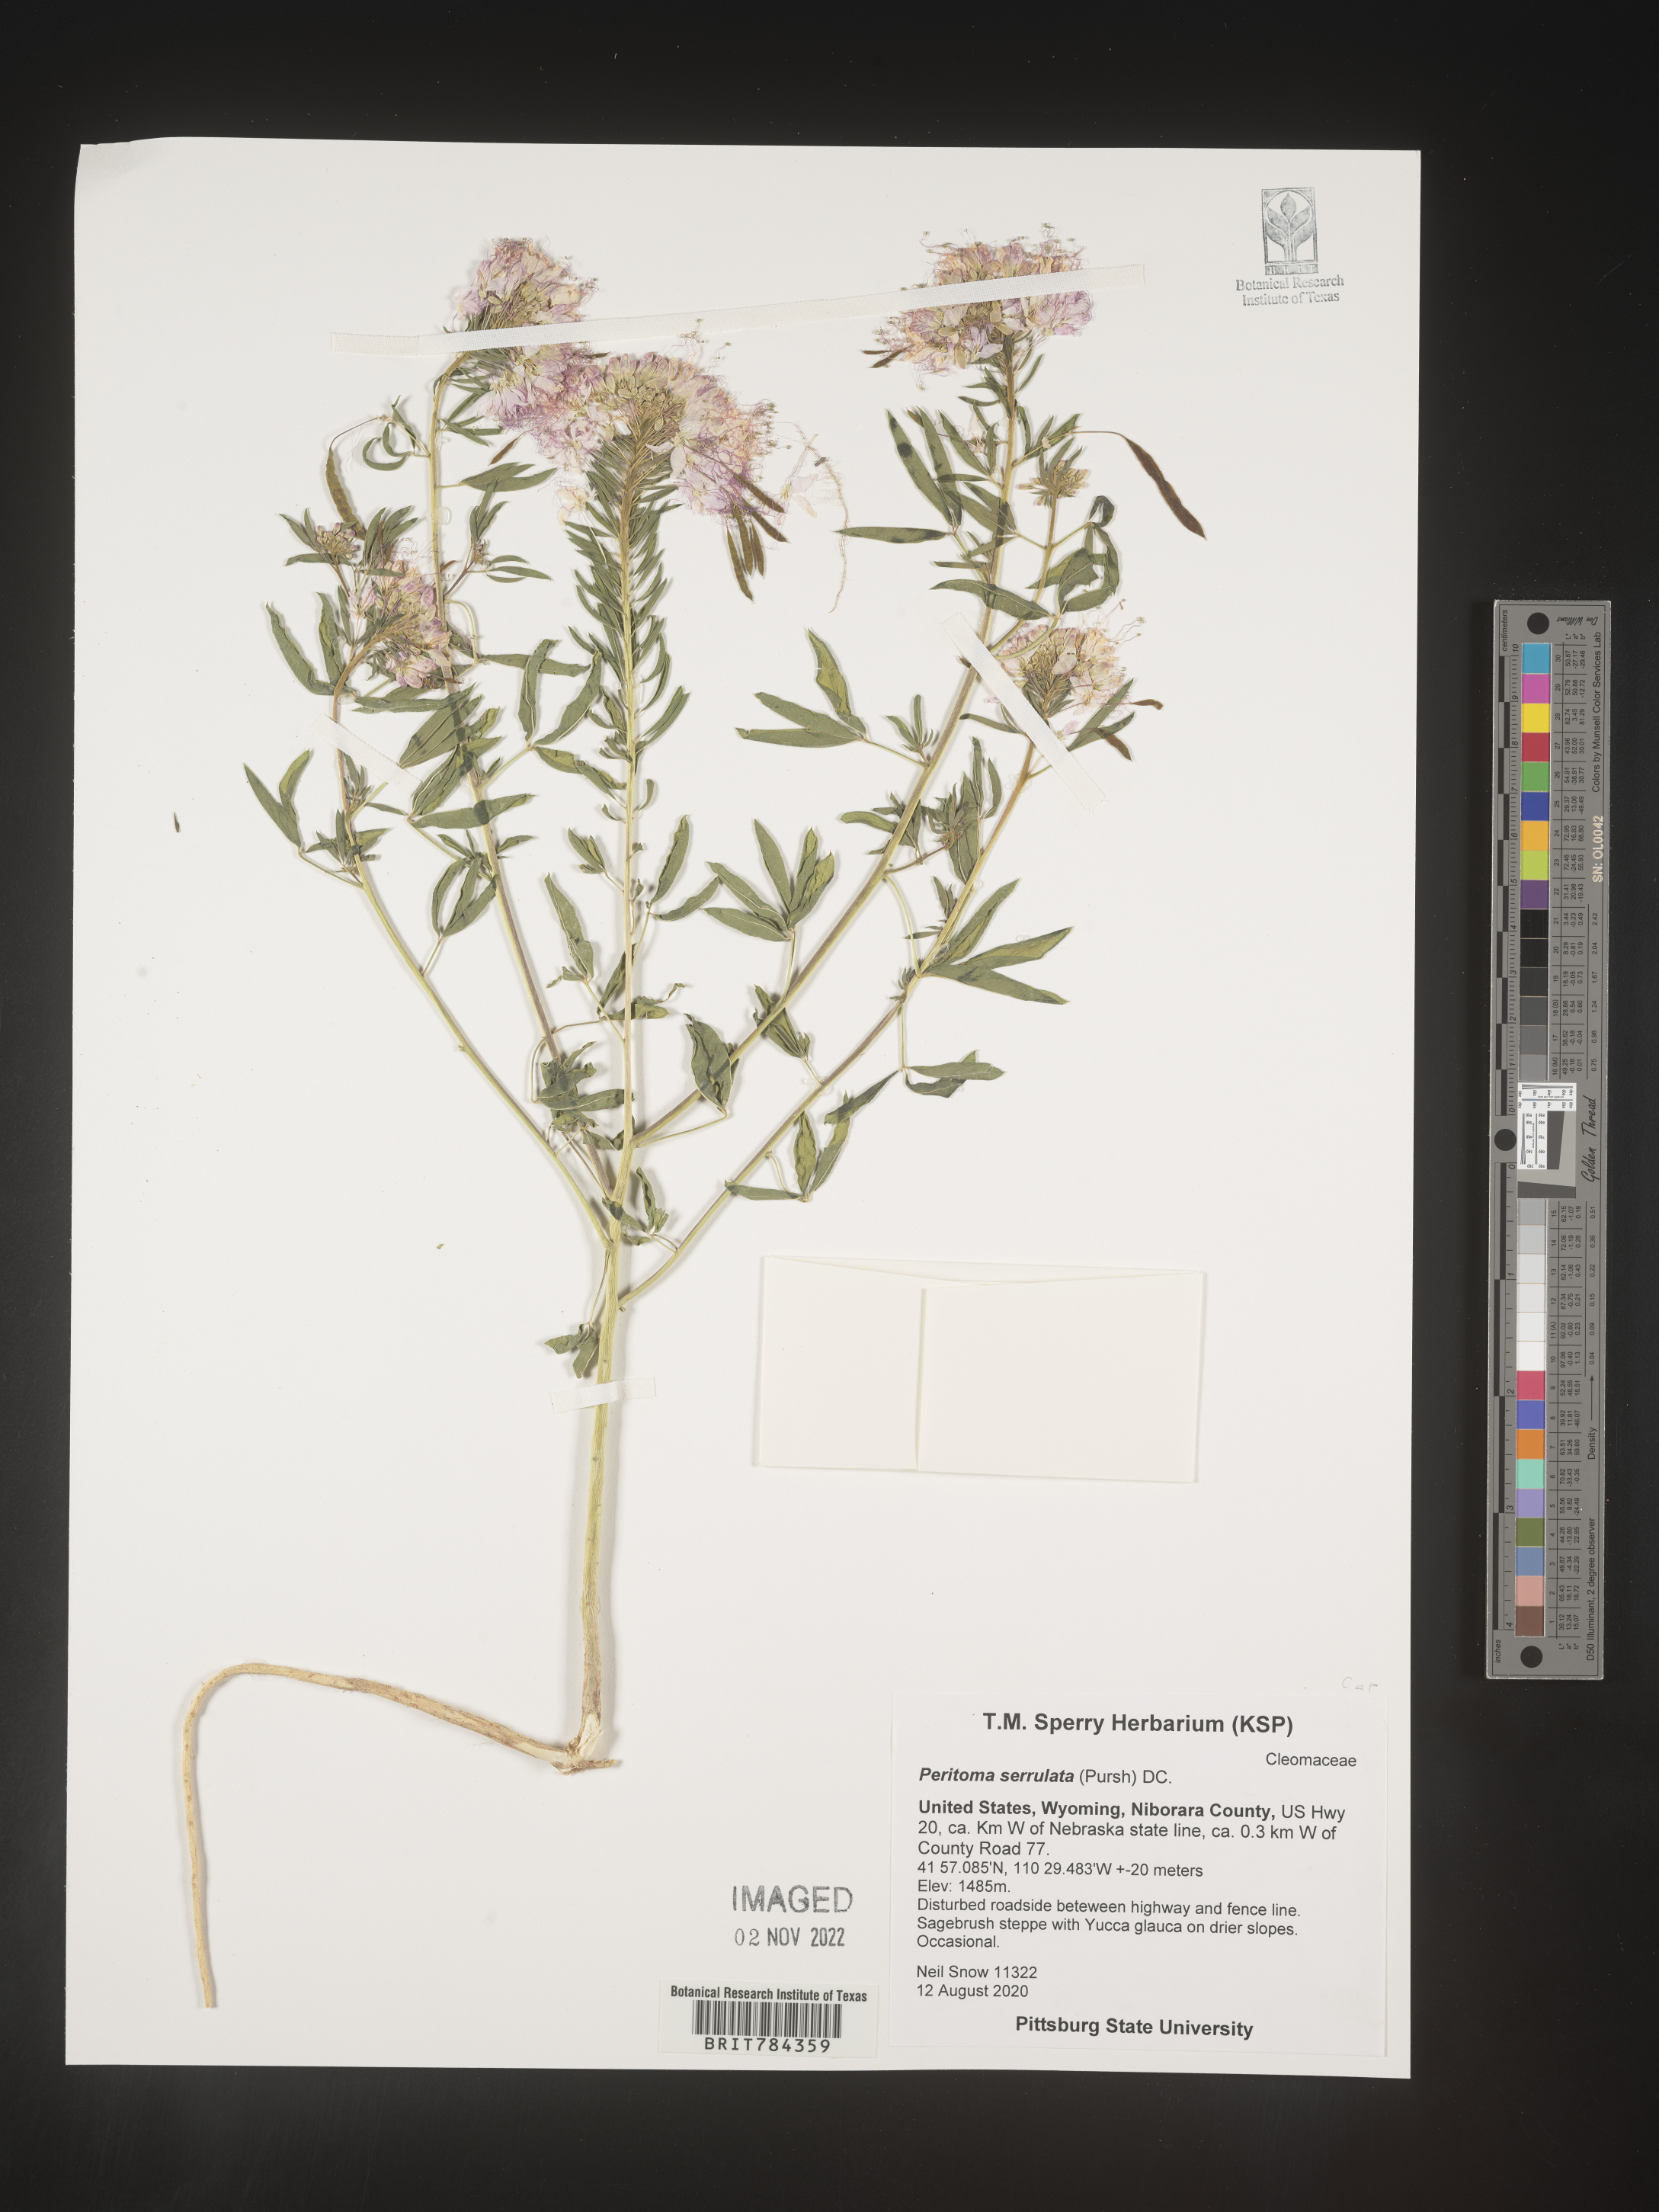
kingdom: Plantae
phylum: Tracheophyta
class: Magnoliopsida
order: Brassicales
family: Cleomaceae
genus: Cleomella
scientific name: Cleomella serrulata
